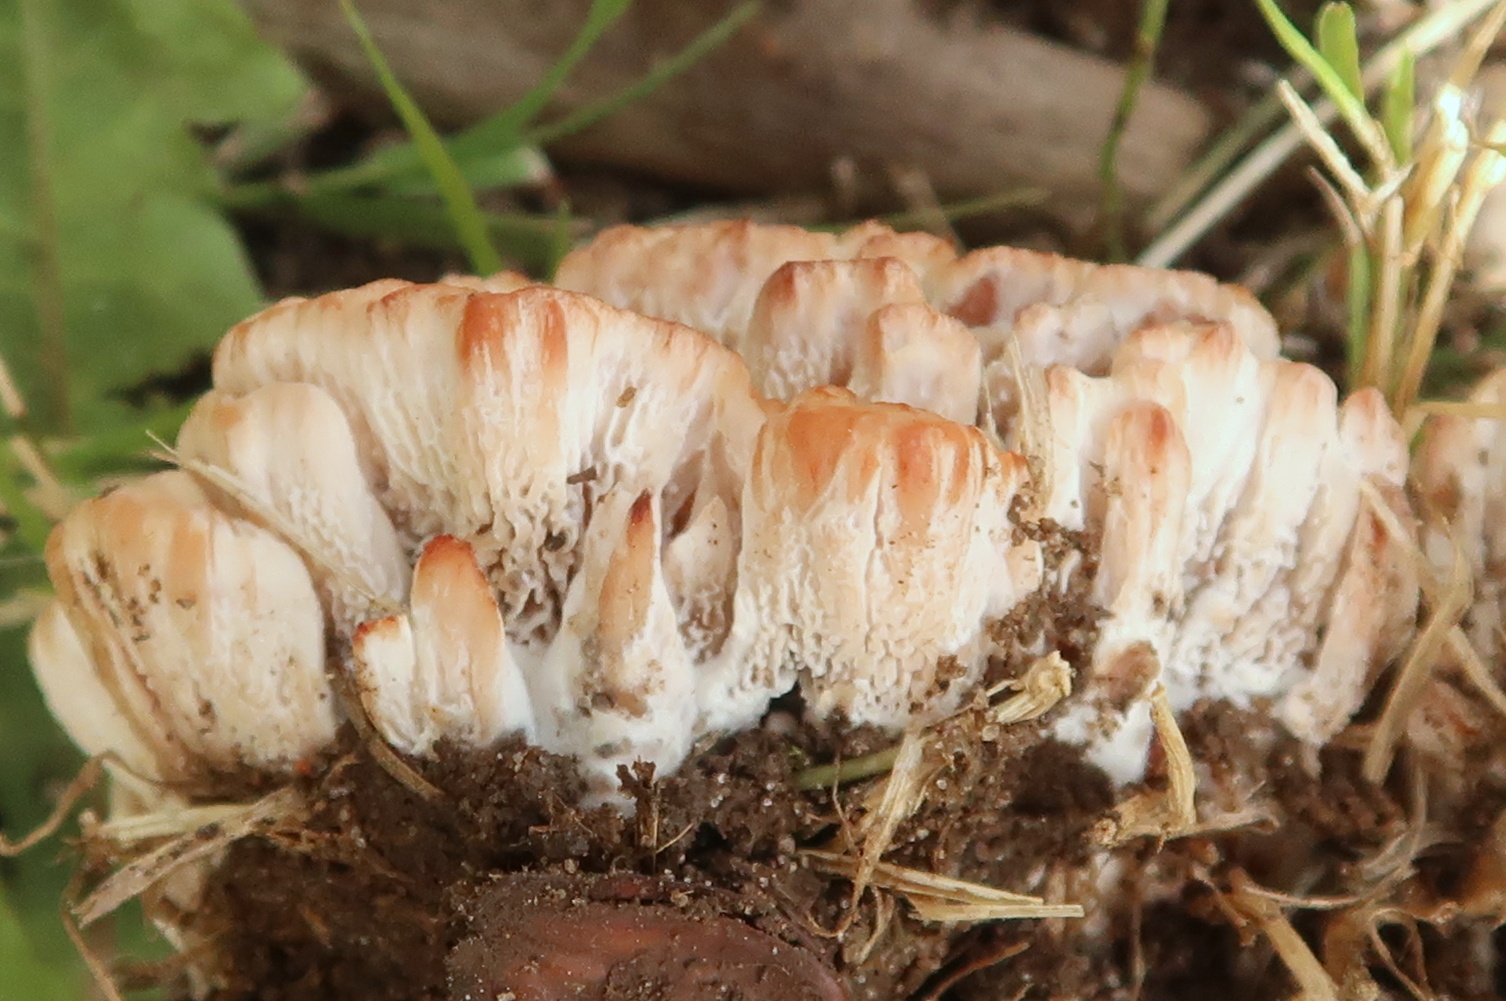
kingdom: Fungi
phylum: Basidiomycota
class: Agaricomycetes
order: Polyporales
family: Podoscyphaceae
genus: Abortiporus
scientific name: Abortiporus biennis
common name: rødmende pjalteporesvamp
